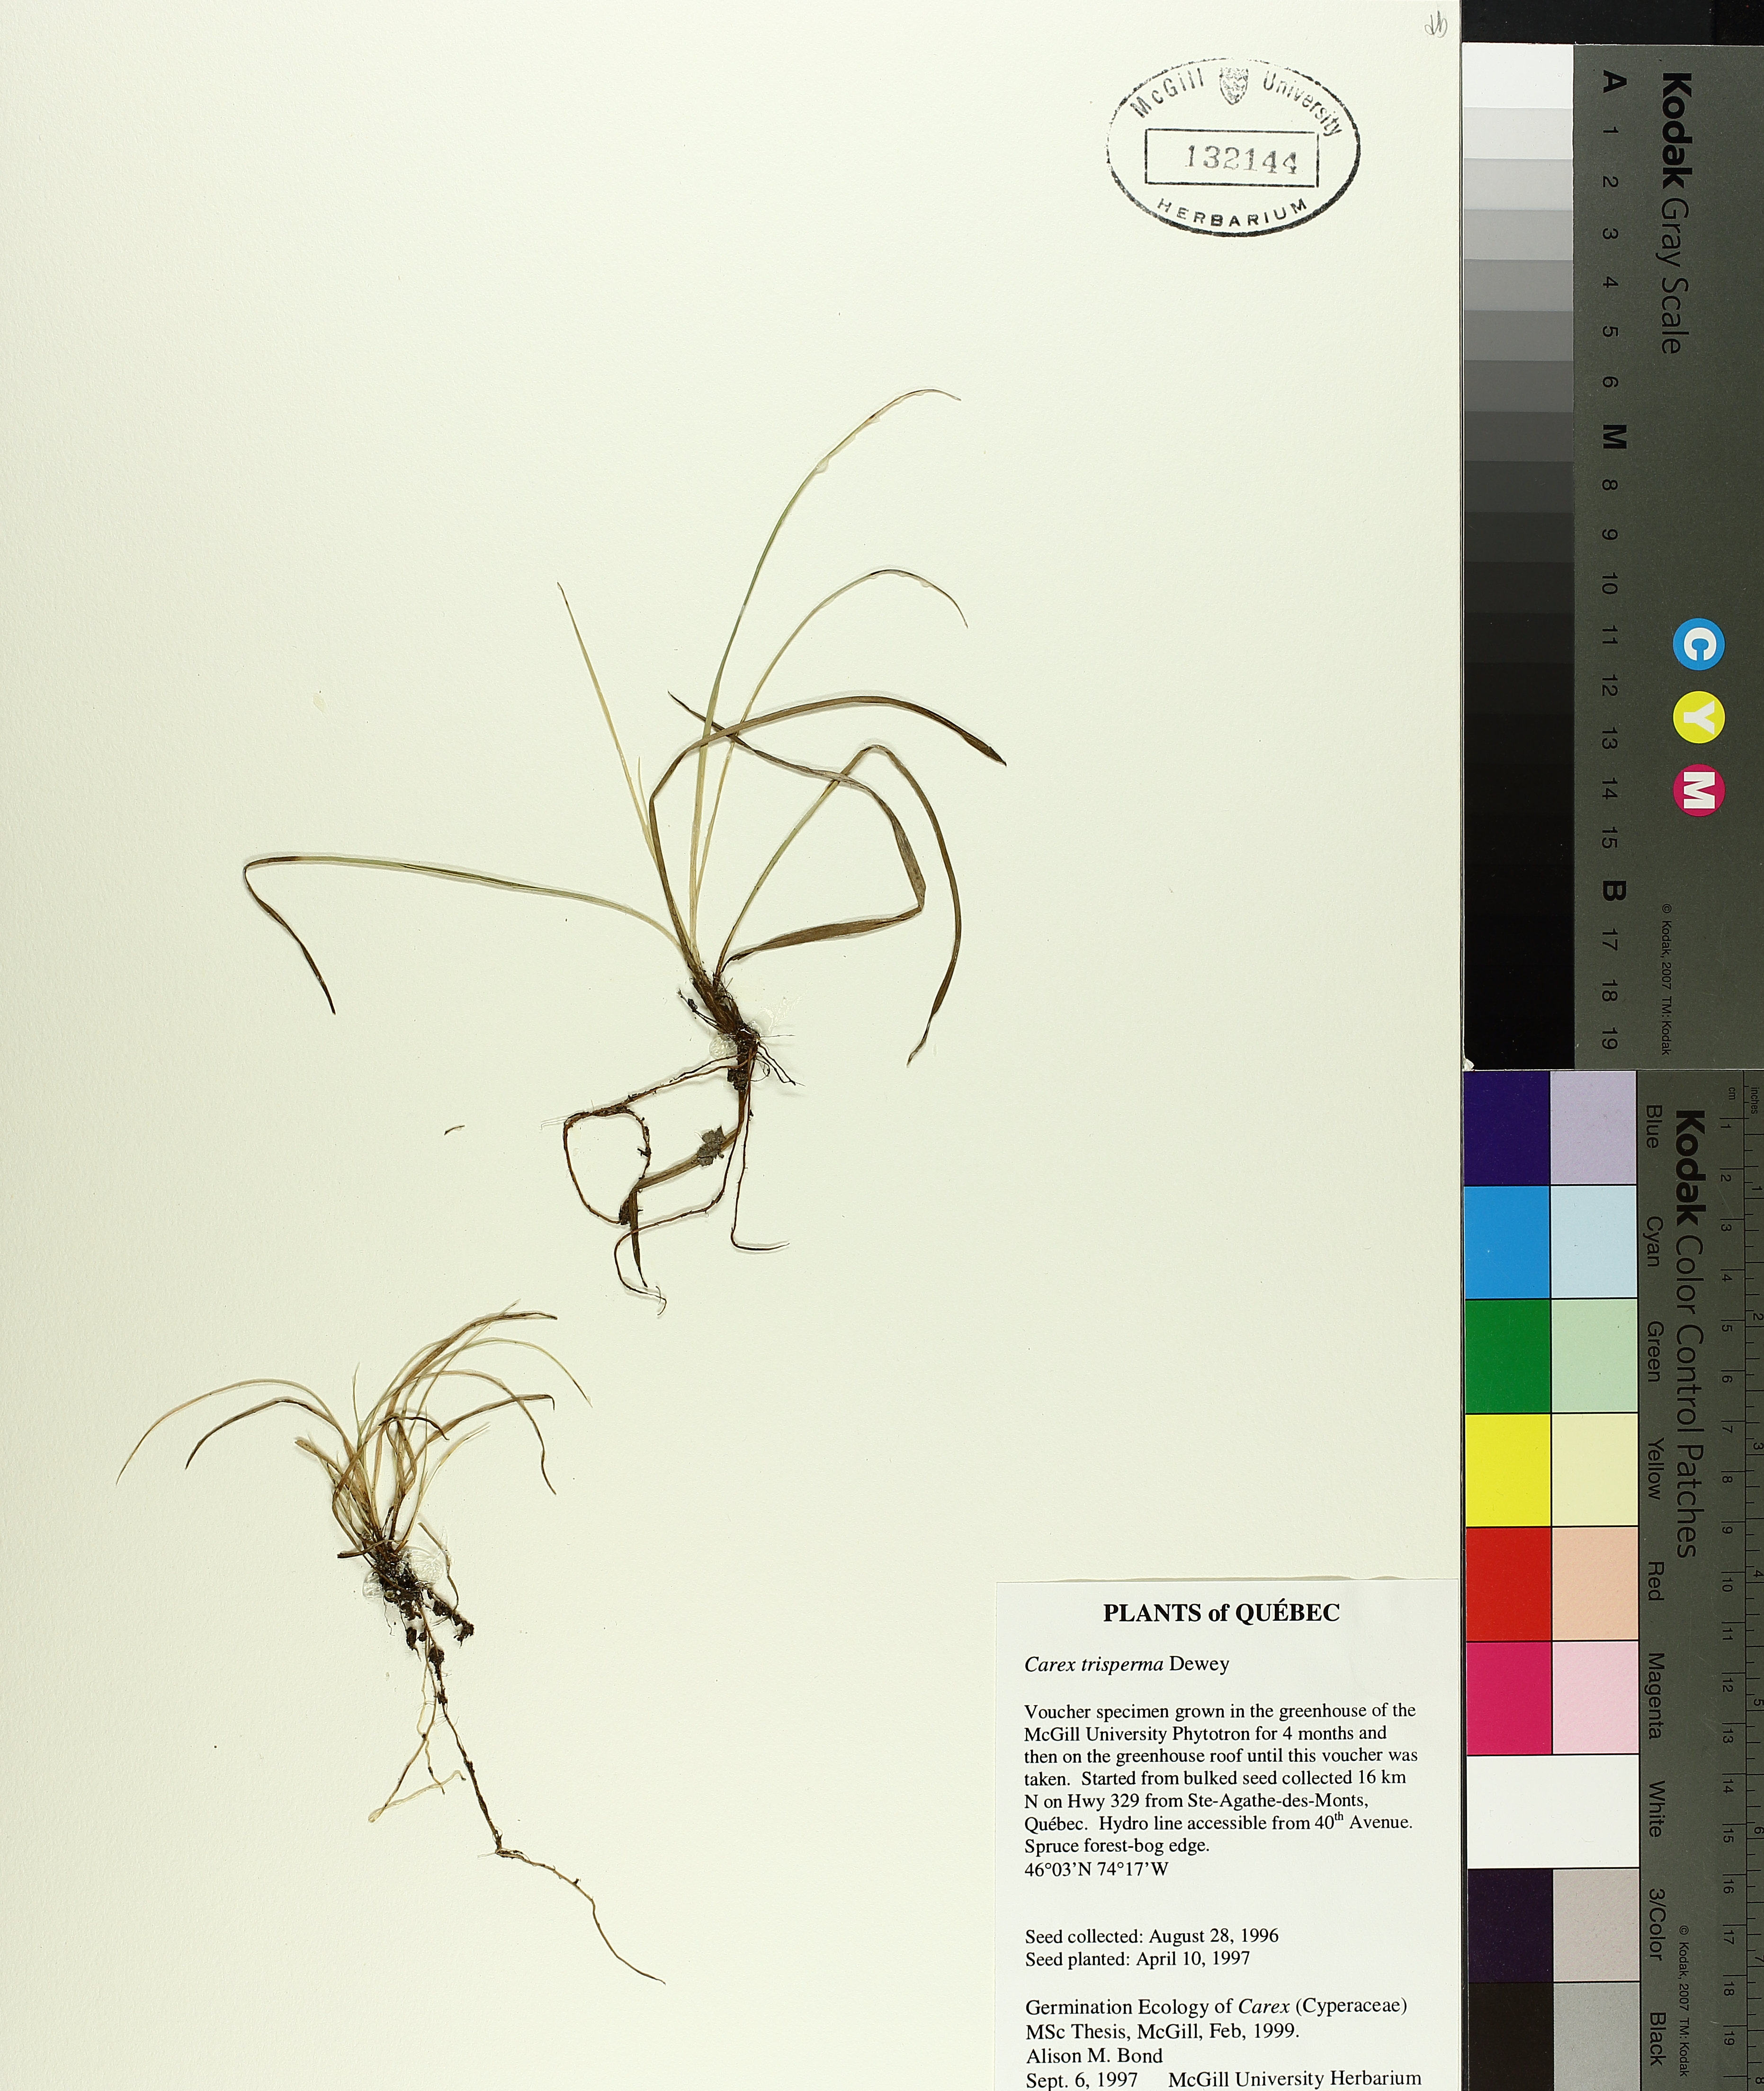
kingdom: Plantae
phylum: Tracheophyta
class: Liliopsida
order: Poales
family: Cyperaceae
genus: Carex
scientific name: Carex trisperma
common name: Three-seeded sedge
